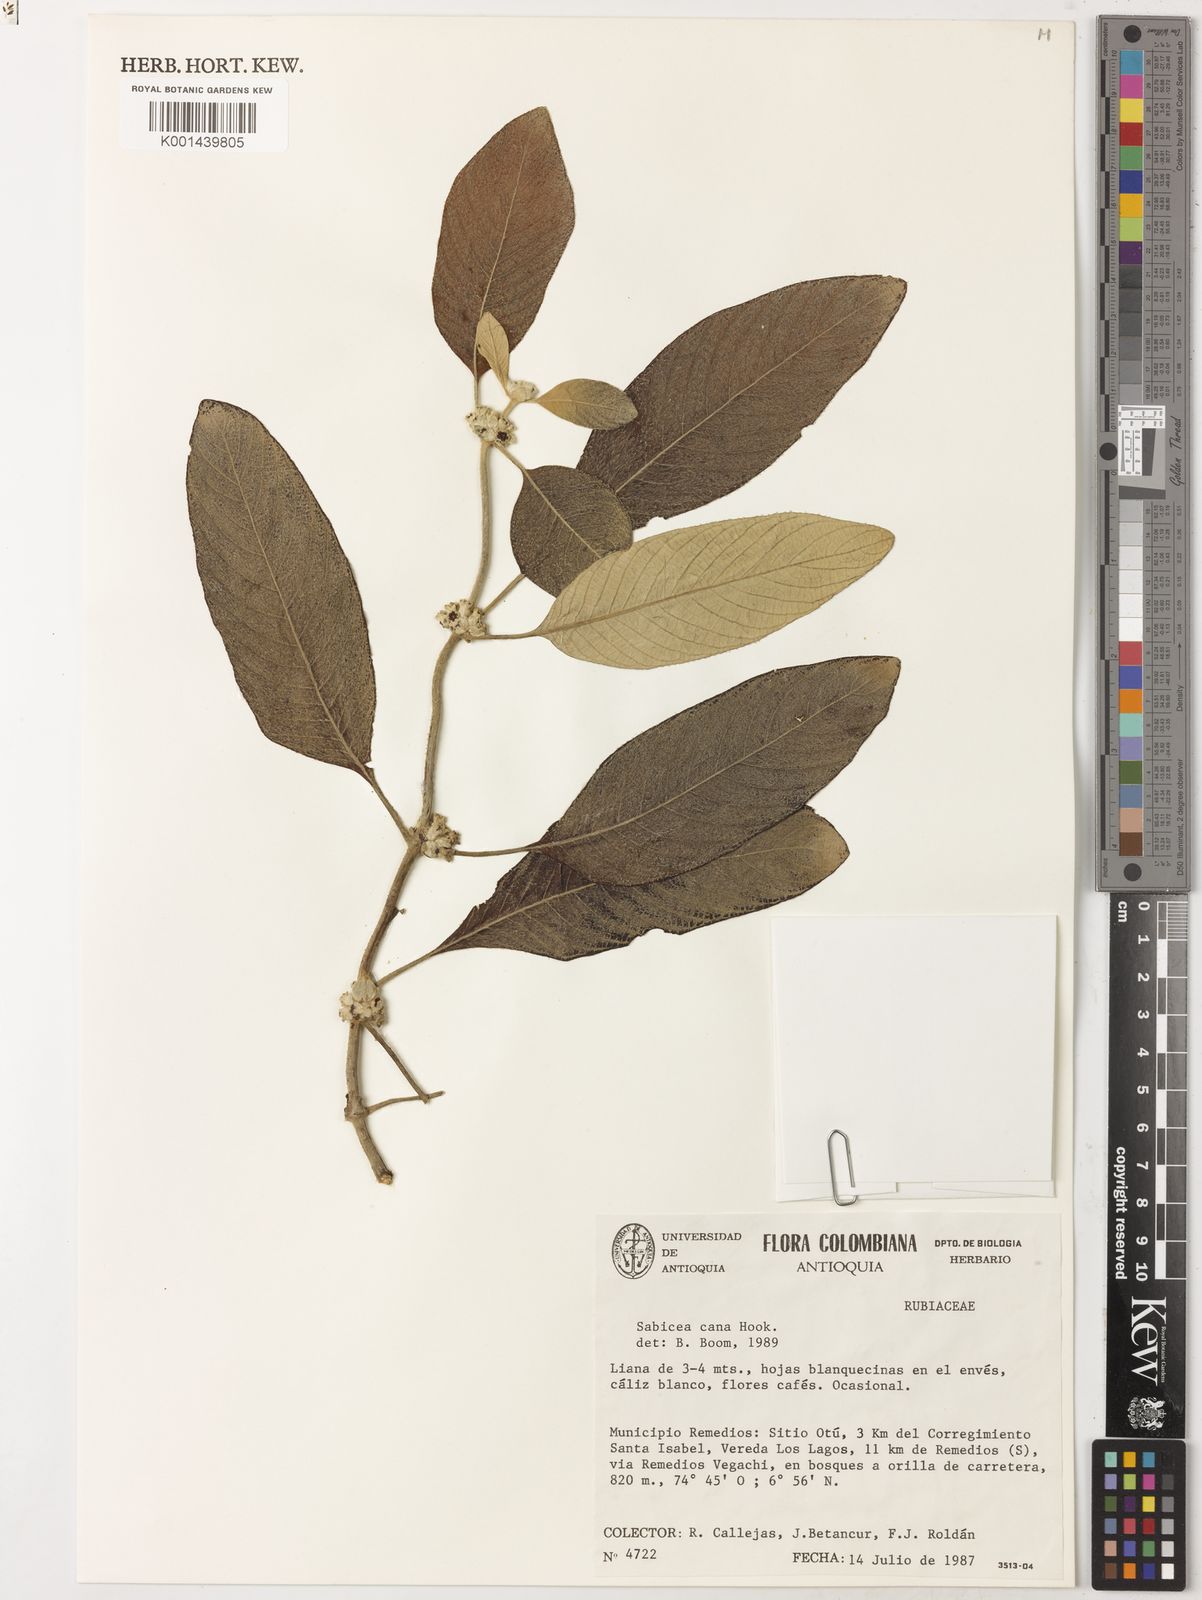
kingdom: Plantae
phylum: Tracheophyta
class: Magnoliopsida
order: Gentianales
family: Rubiaceae
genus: Sabicea
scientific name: Sabicea cana
